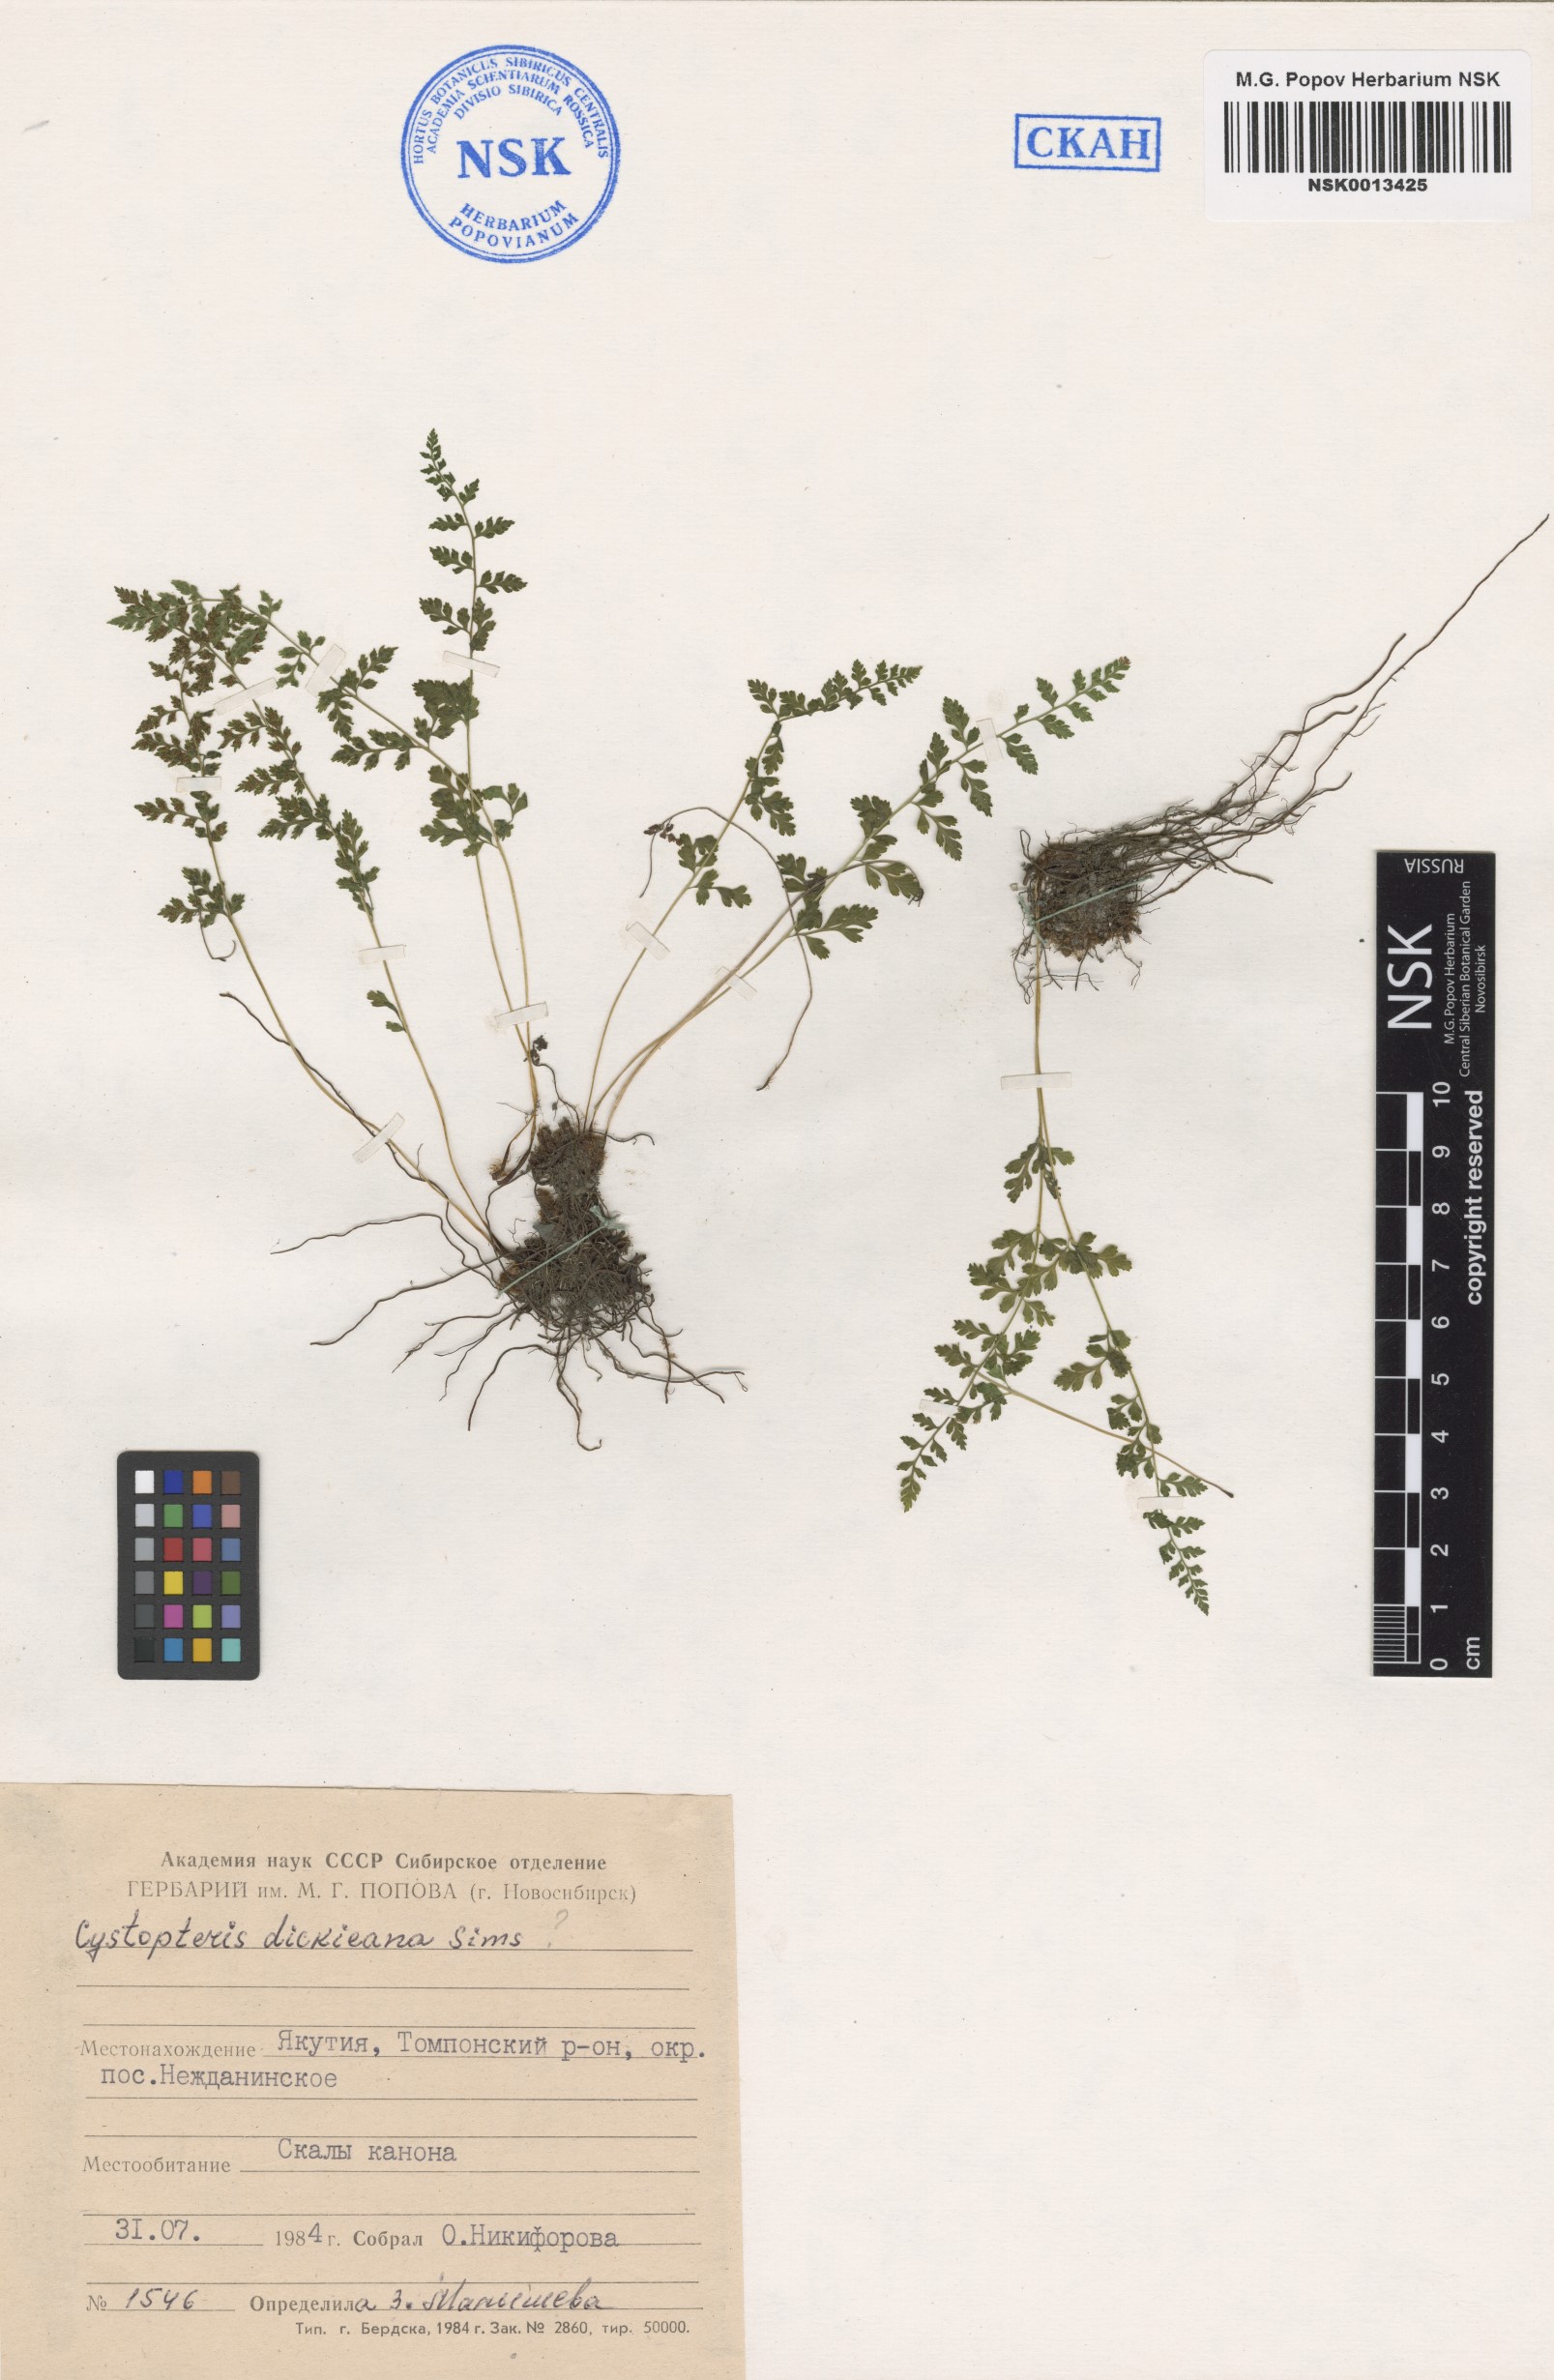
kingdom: Plantae
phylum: Tracheophyta
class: Polypodiopsida
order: Polypodiales
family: Cystopteridaceae
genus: Cystopteris
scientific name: Cystopteris dickieana
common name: Dickie's bladder-fern
